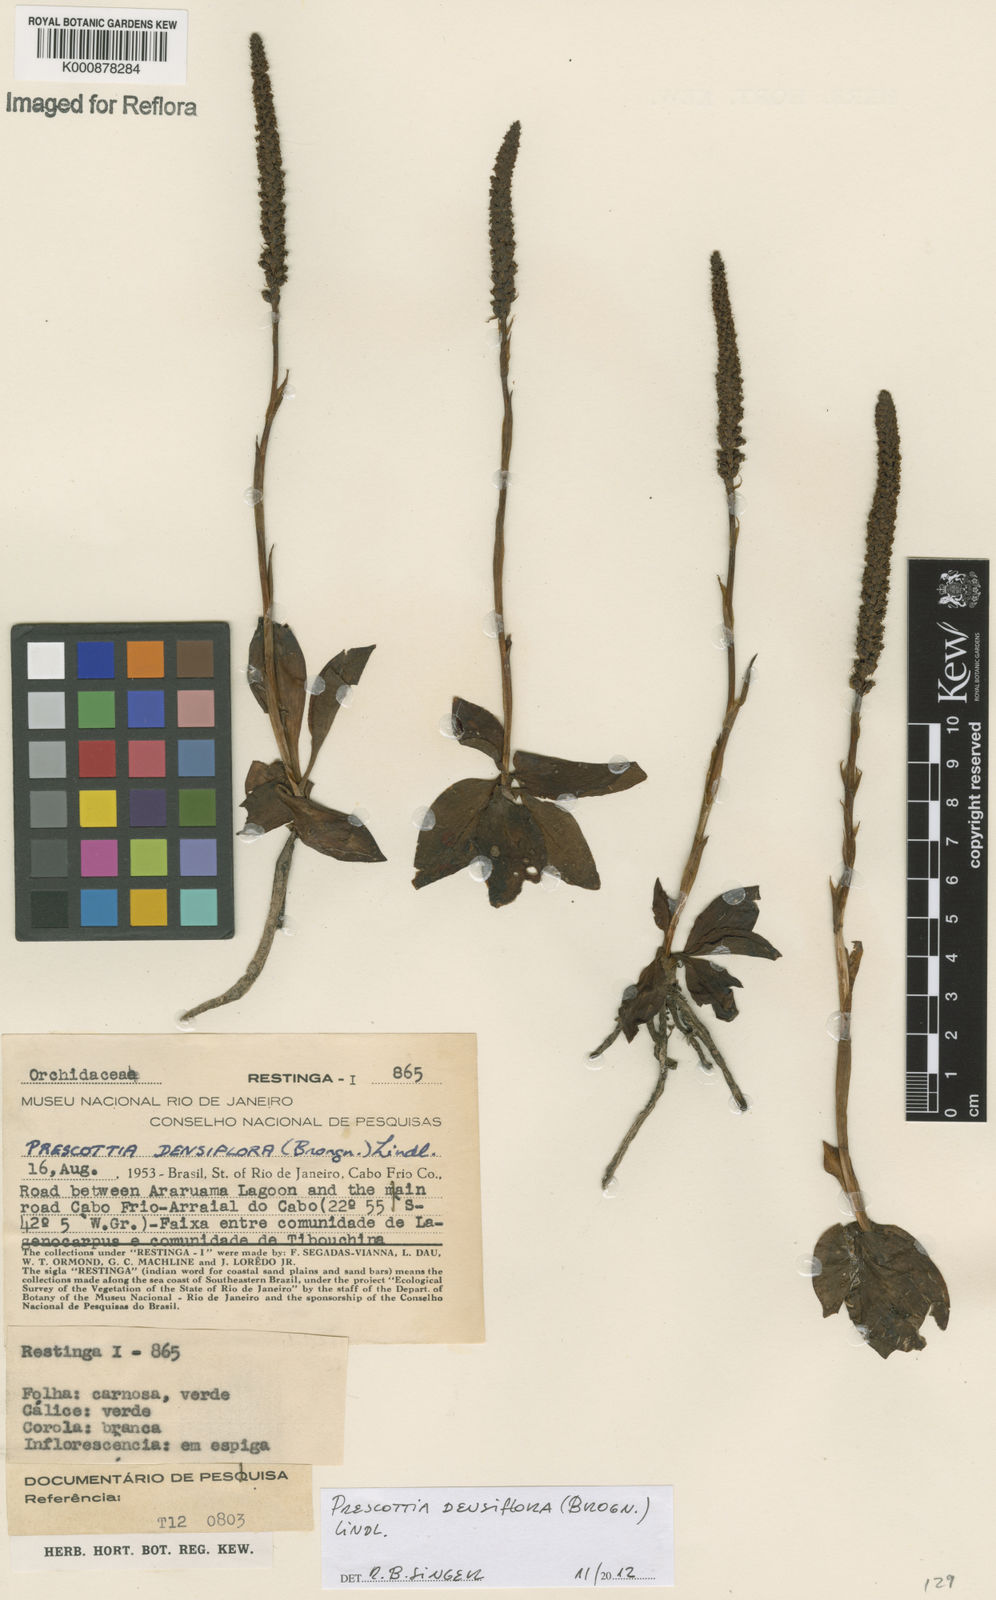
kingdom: Plantae
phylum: Tracheophyta
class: Liliopsida
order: Asparagales
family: Orchidaceae
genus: Prescottia
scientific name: Prescottia densiflora
